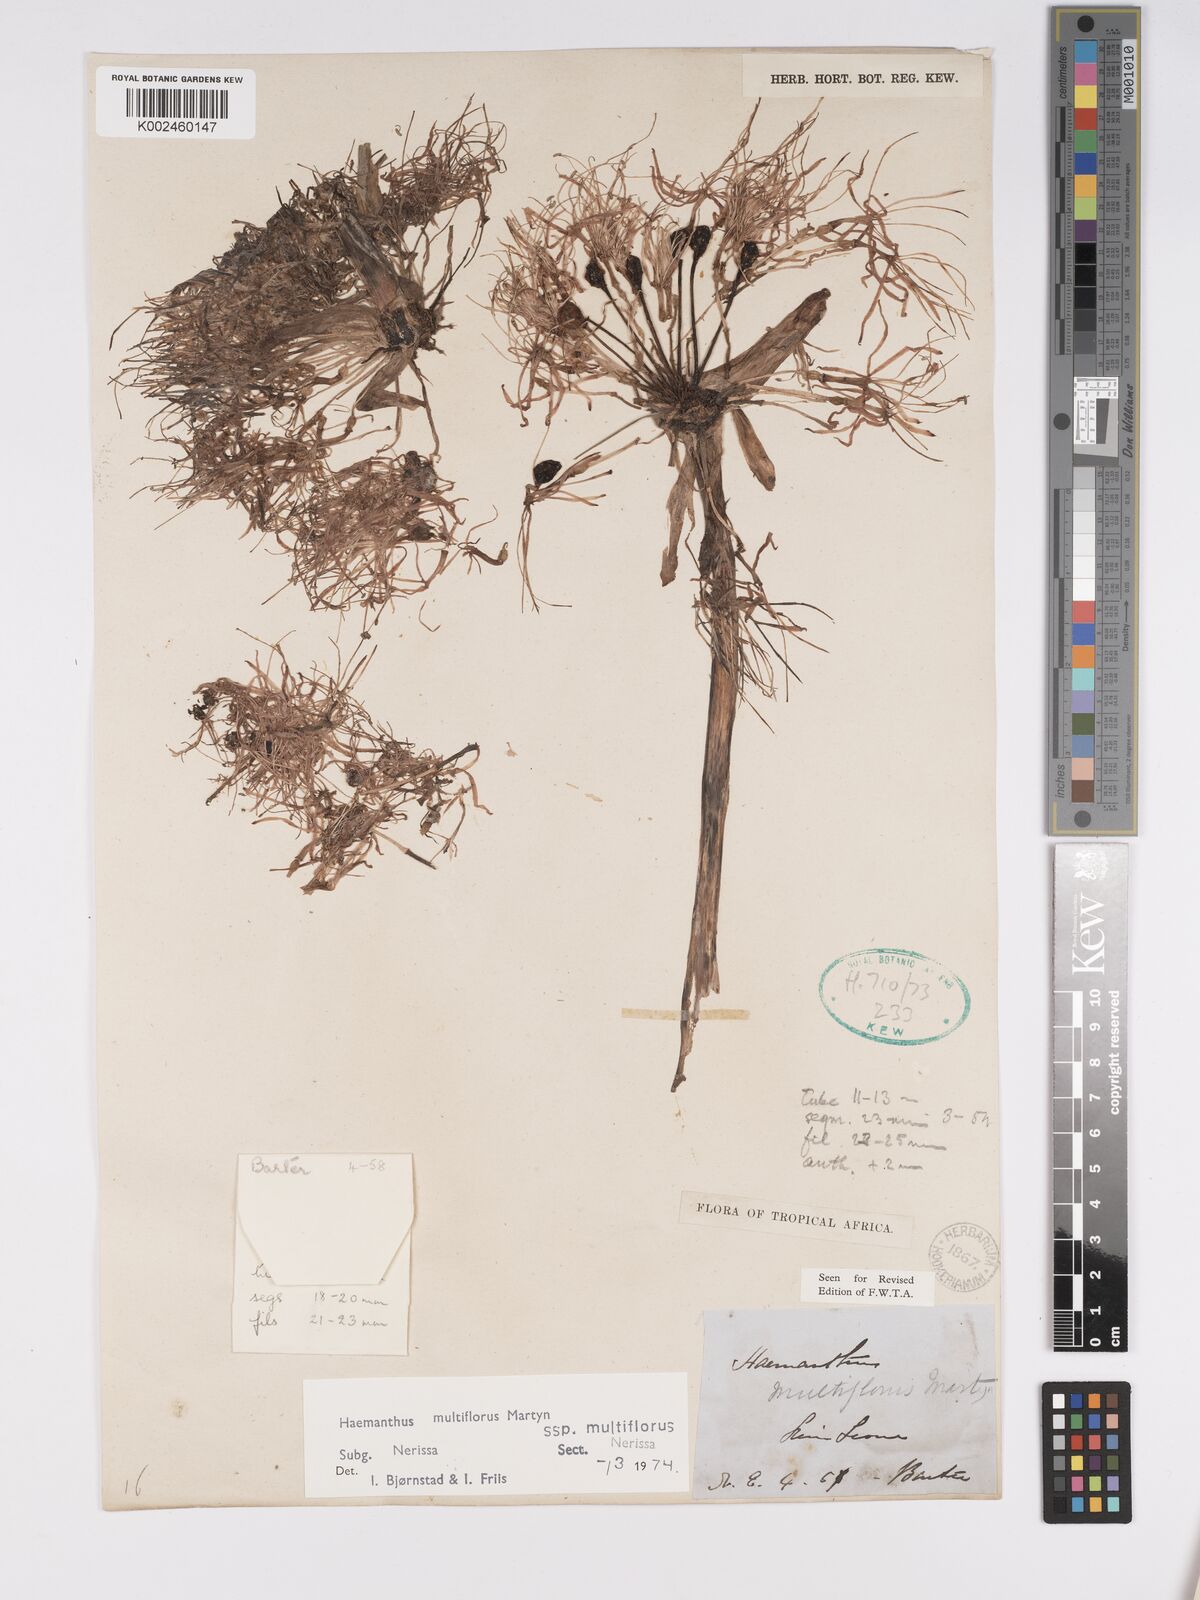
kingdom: Plantae
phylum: Tracheophyta
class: Liliopsida
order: Asparagales
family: Amaryllidaceae
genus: Scadoxus
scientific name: Scadoxus multiflorus
